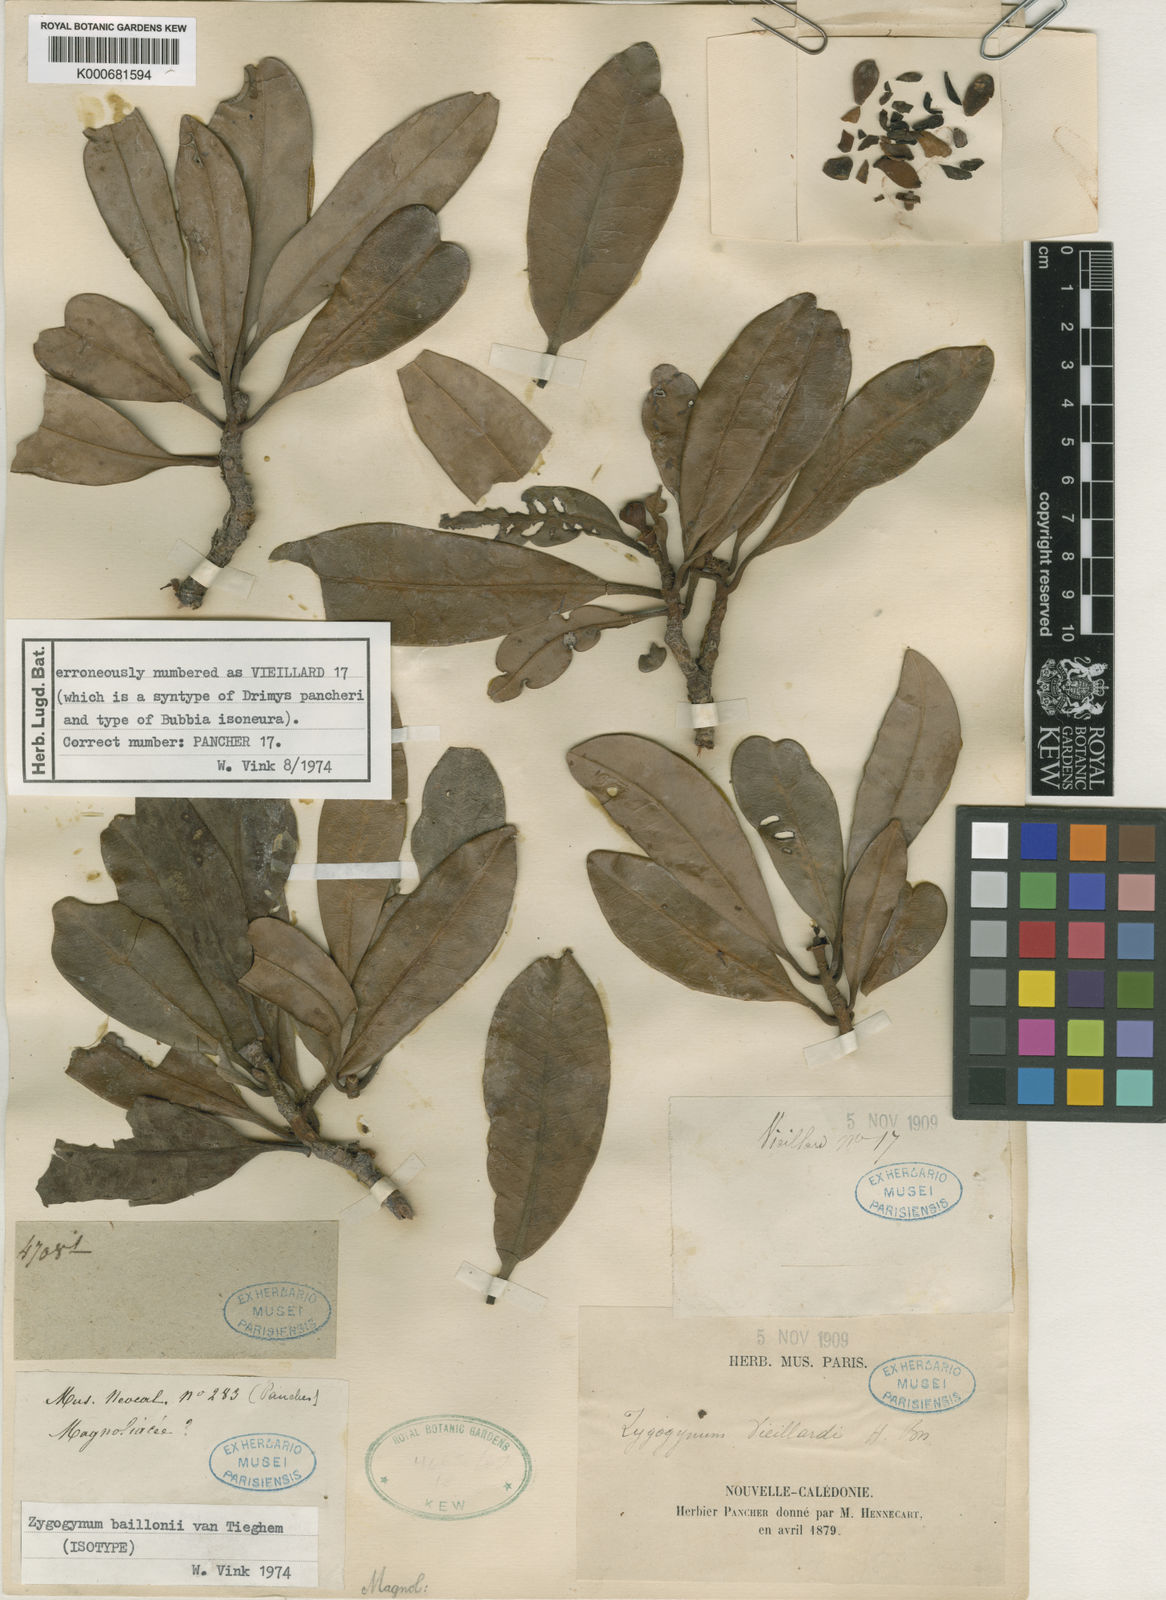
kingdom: Plantae
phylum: Tracheophyta
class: Magnoliopsida
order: Canellales
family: Winteraceae
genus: Zygogynum
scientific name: Zygogynum baillonii
